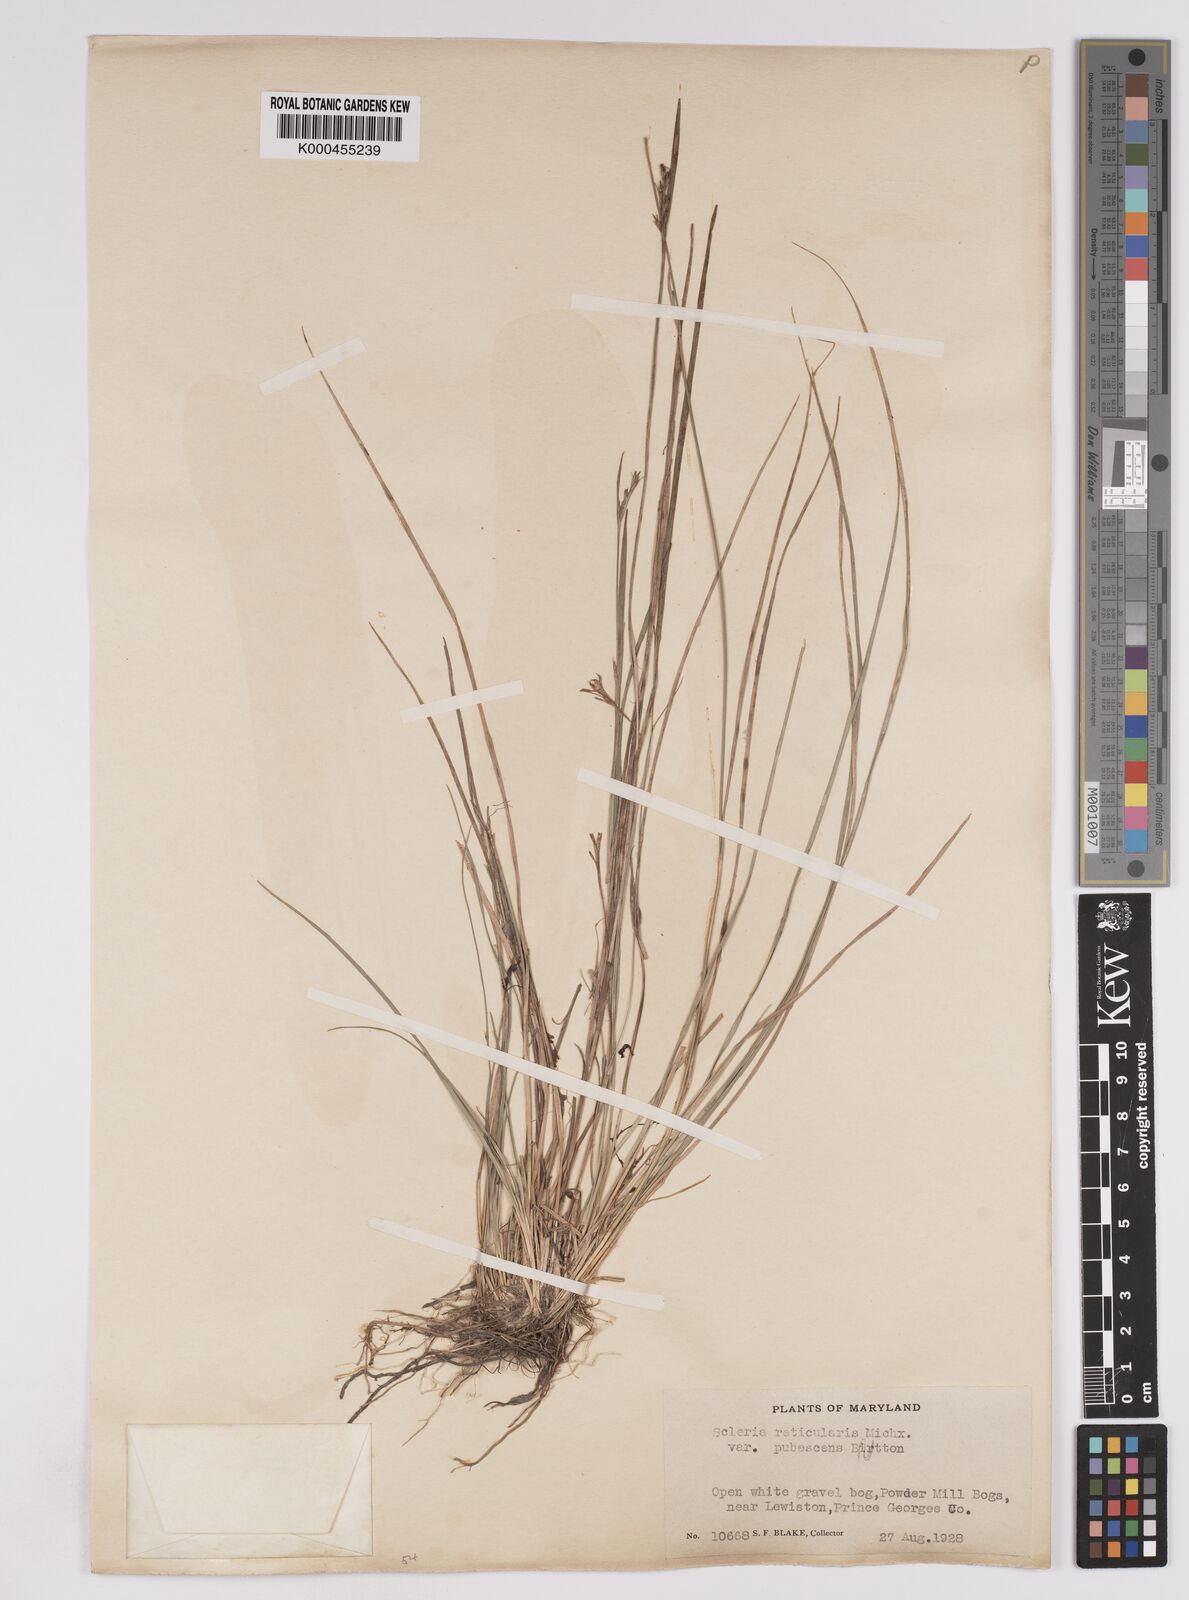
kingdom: Plantae
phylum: Tracheophyta
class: Liliopsida
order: Poales
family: Cyperaceae
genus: Scleria
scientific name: Scleria
